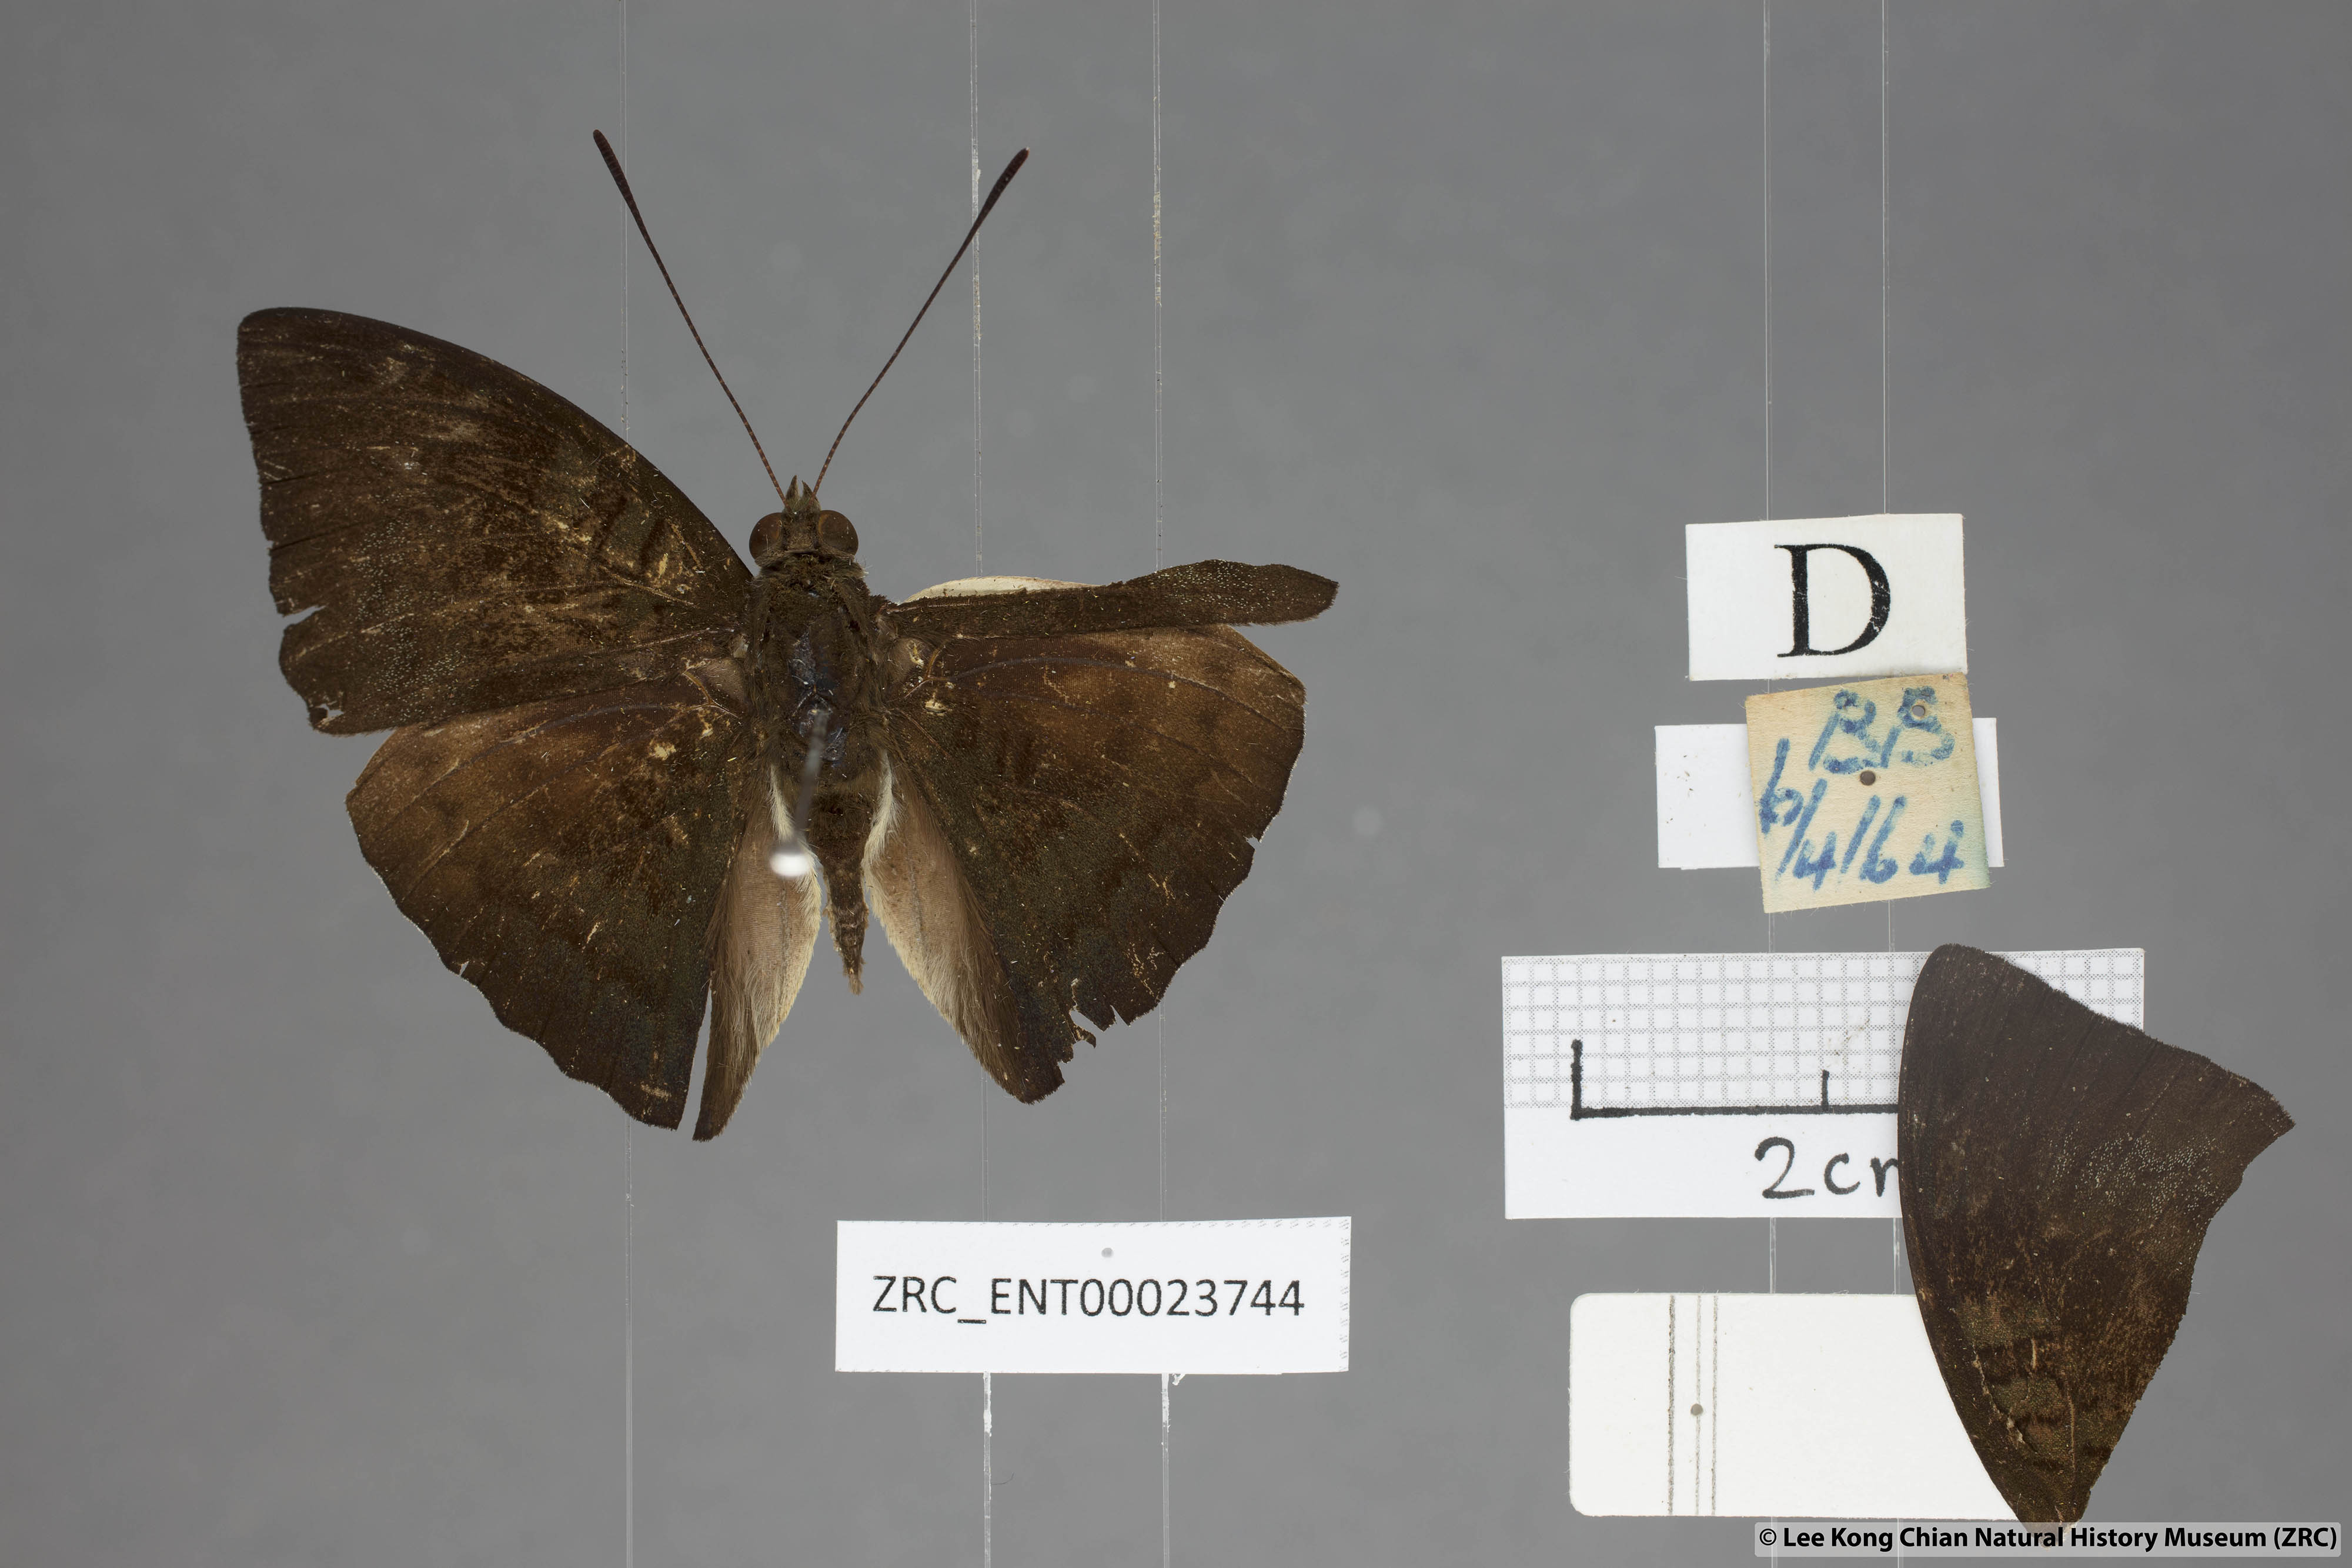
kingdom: Animalia
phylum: Arthropoda
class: Insecta
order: Lepidoptera
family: Nymphalidae
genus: Euthalia
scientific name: Euthalia monina
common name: Powdered baron
